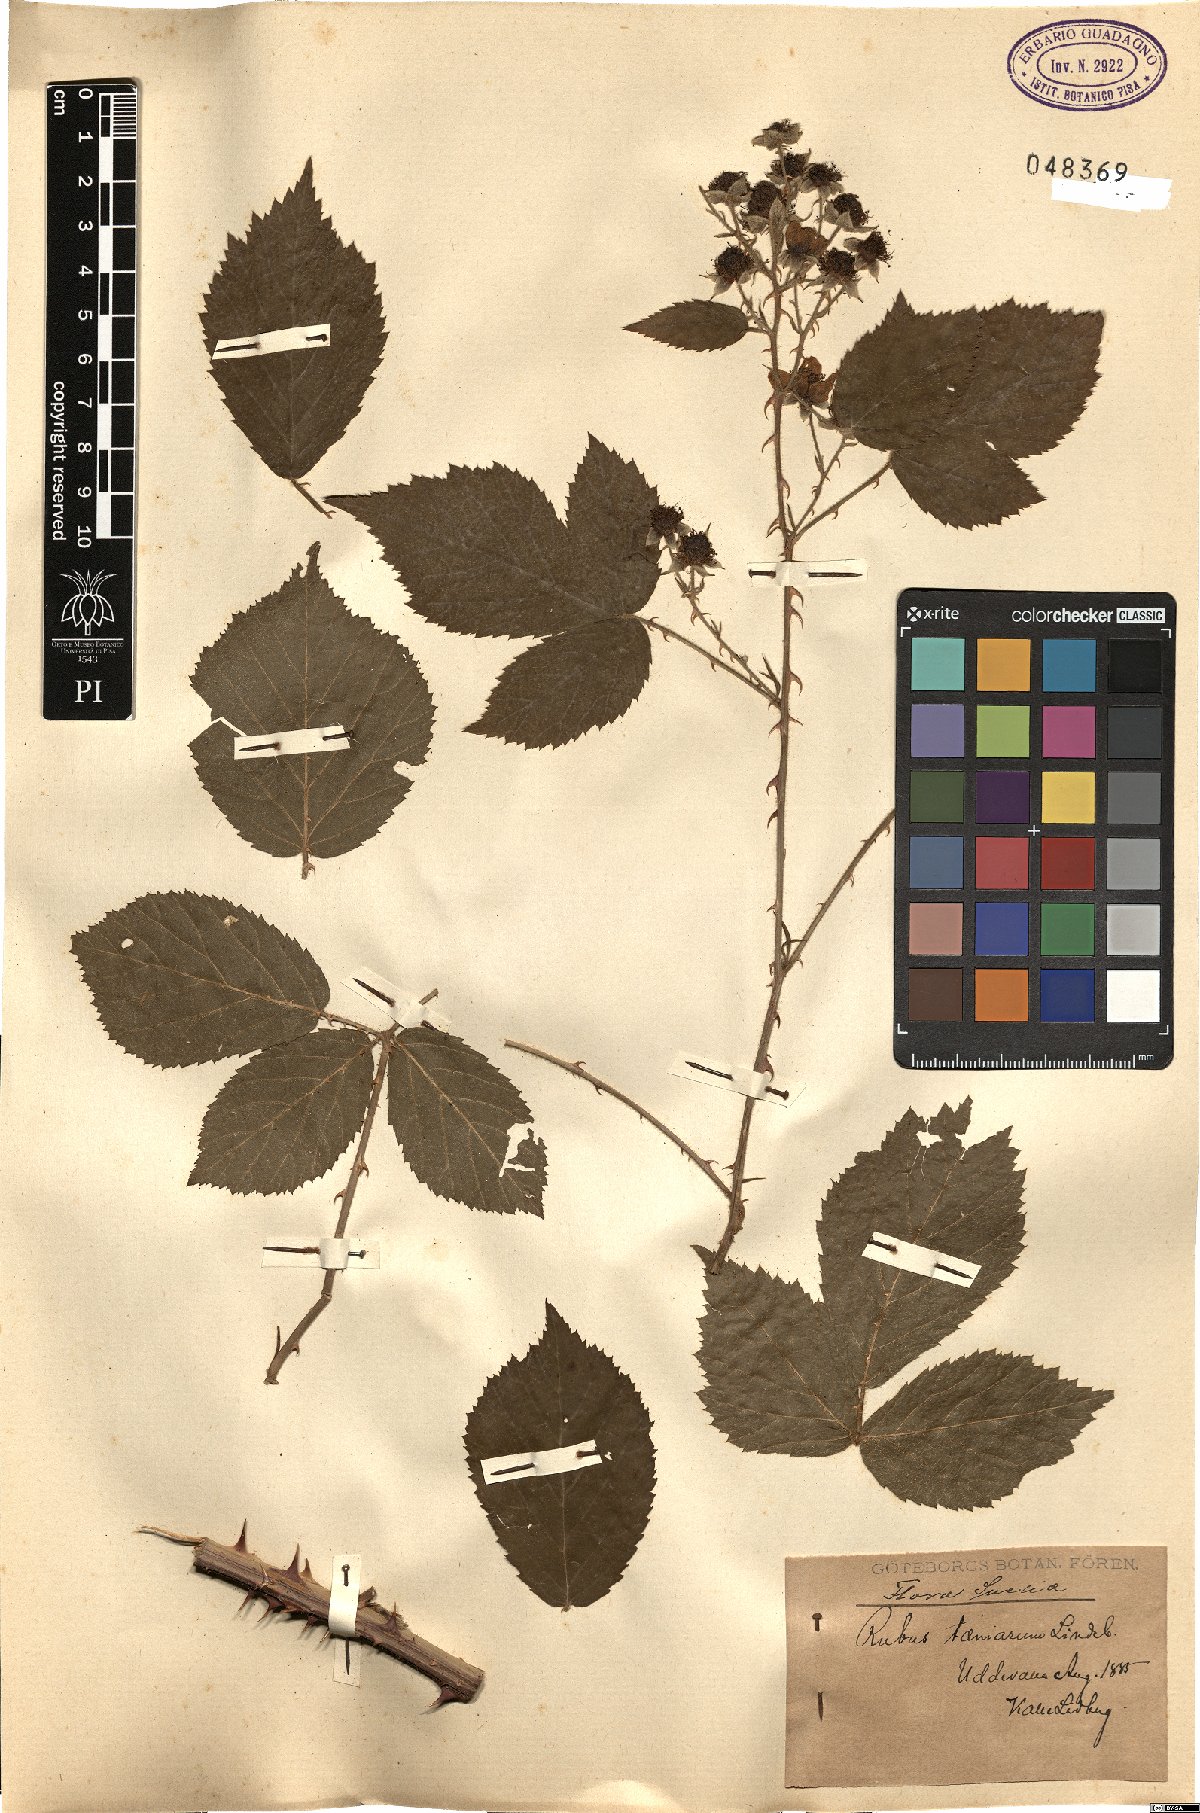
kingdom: Plantae
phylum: Tracheophyta
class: Magnoliopsida
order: Rosales
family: Rosaceae
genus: Rubus
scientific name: Rubus infestus
